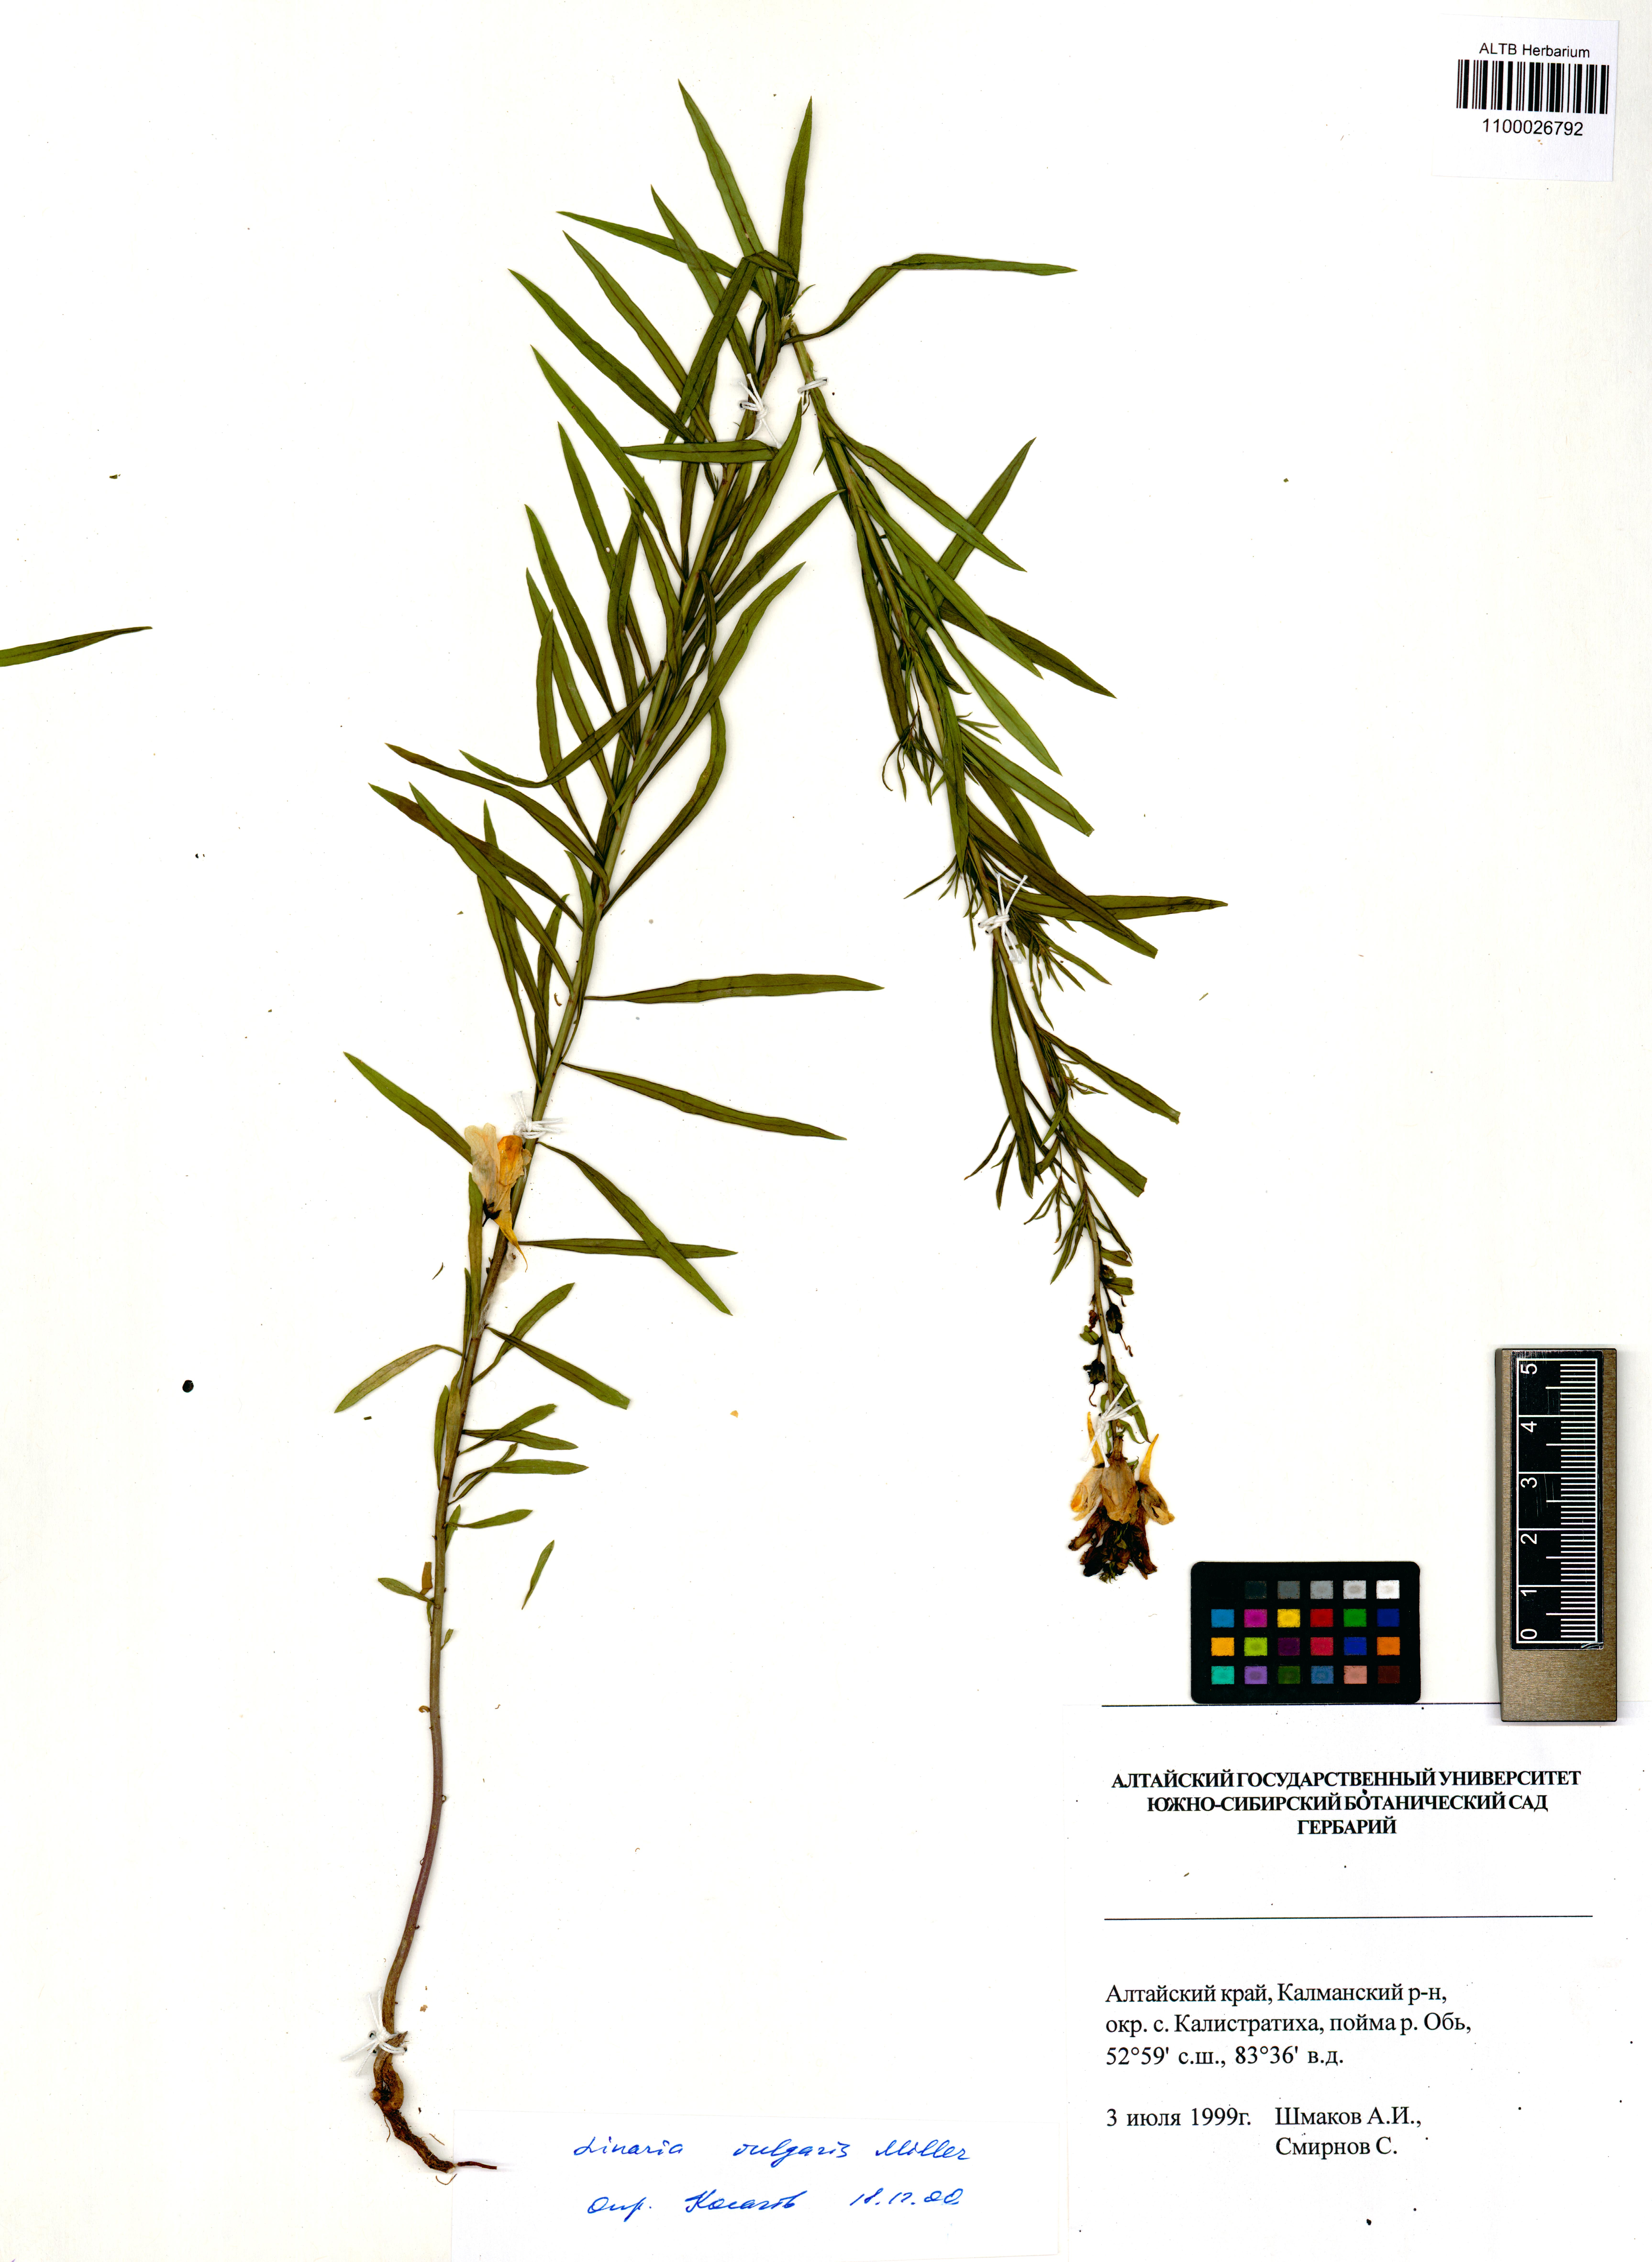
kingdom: Plantae
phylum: Tracheophyta
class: Magnoliopsida
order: Lamiales
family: Plantaginaceae
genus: Linaria
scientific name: Linaria vulgaris
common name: Butter and eggs
